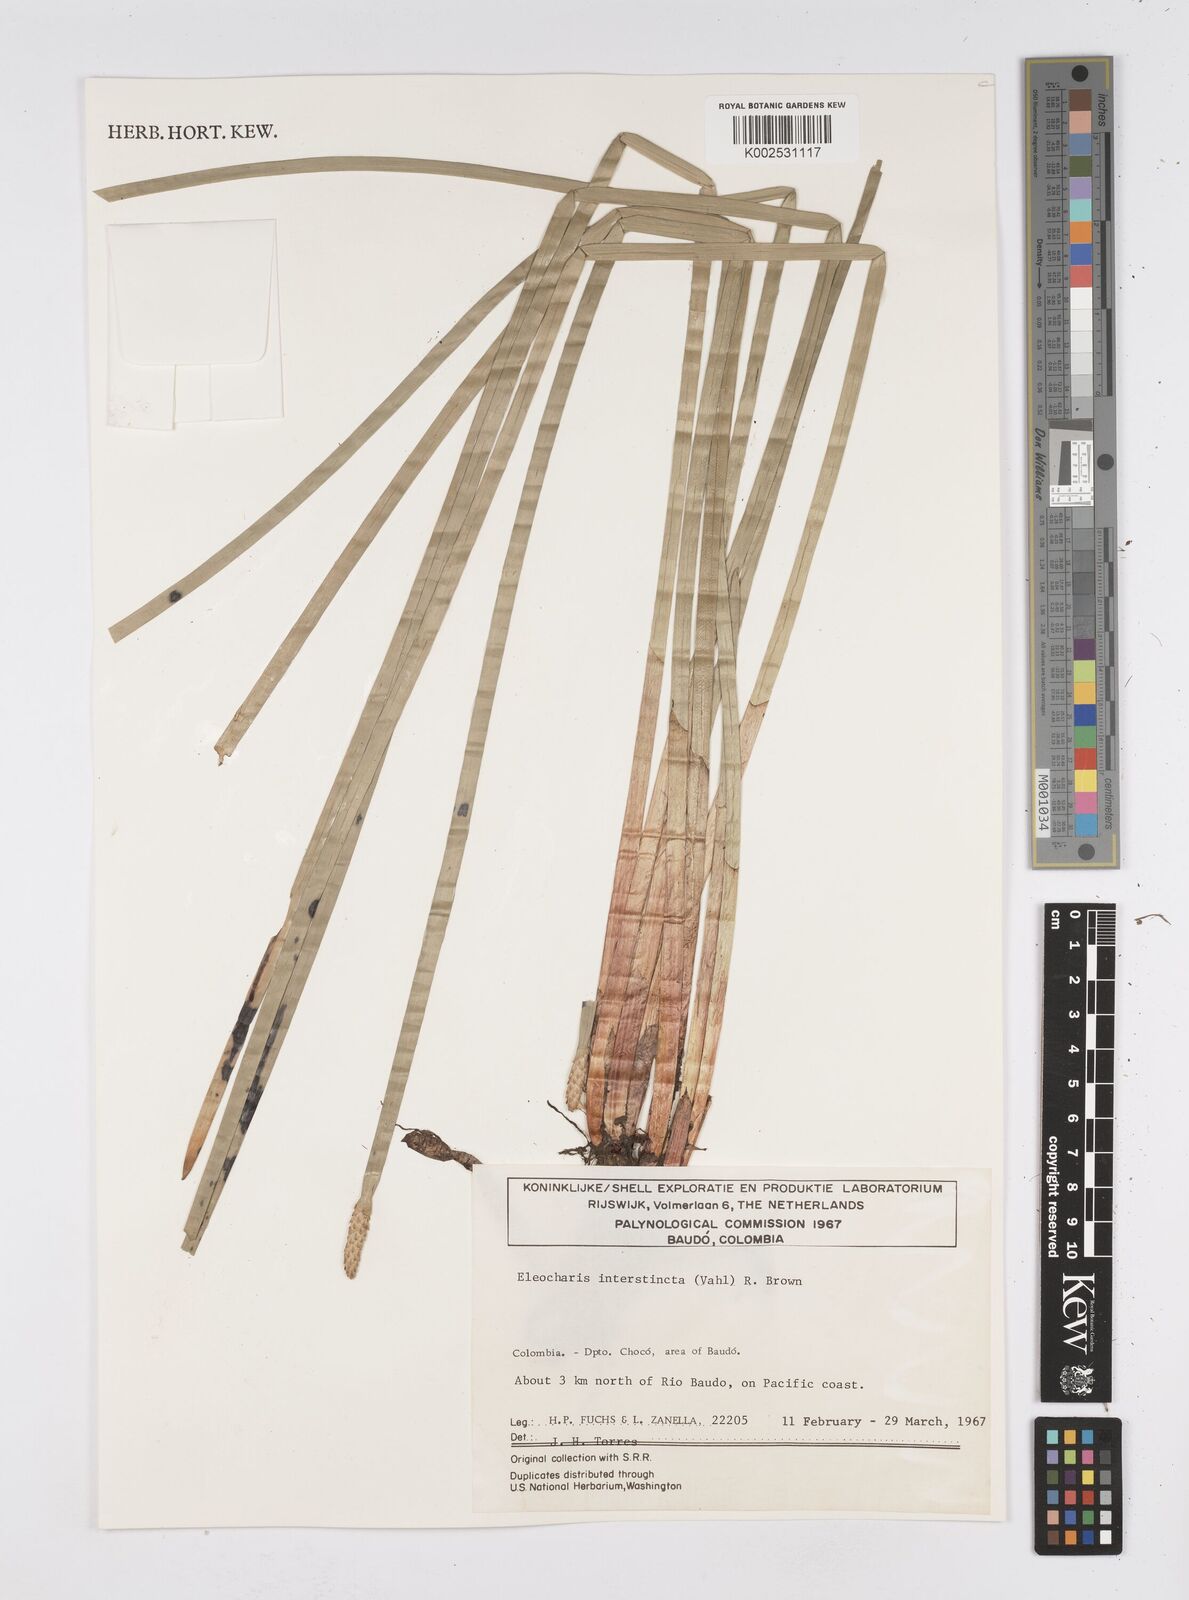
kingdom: Plantae
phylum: Tracheophyta
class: Liliopsida
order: Poales
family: Cyperaceae
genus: Eleocharis
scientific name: Eleocharis interstincta
